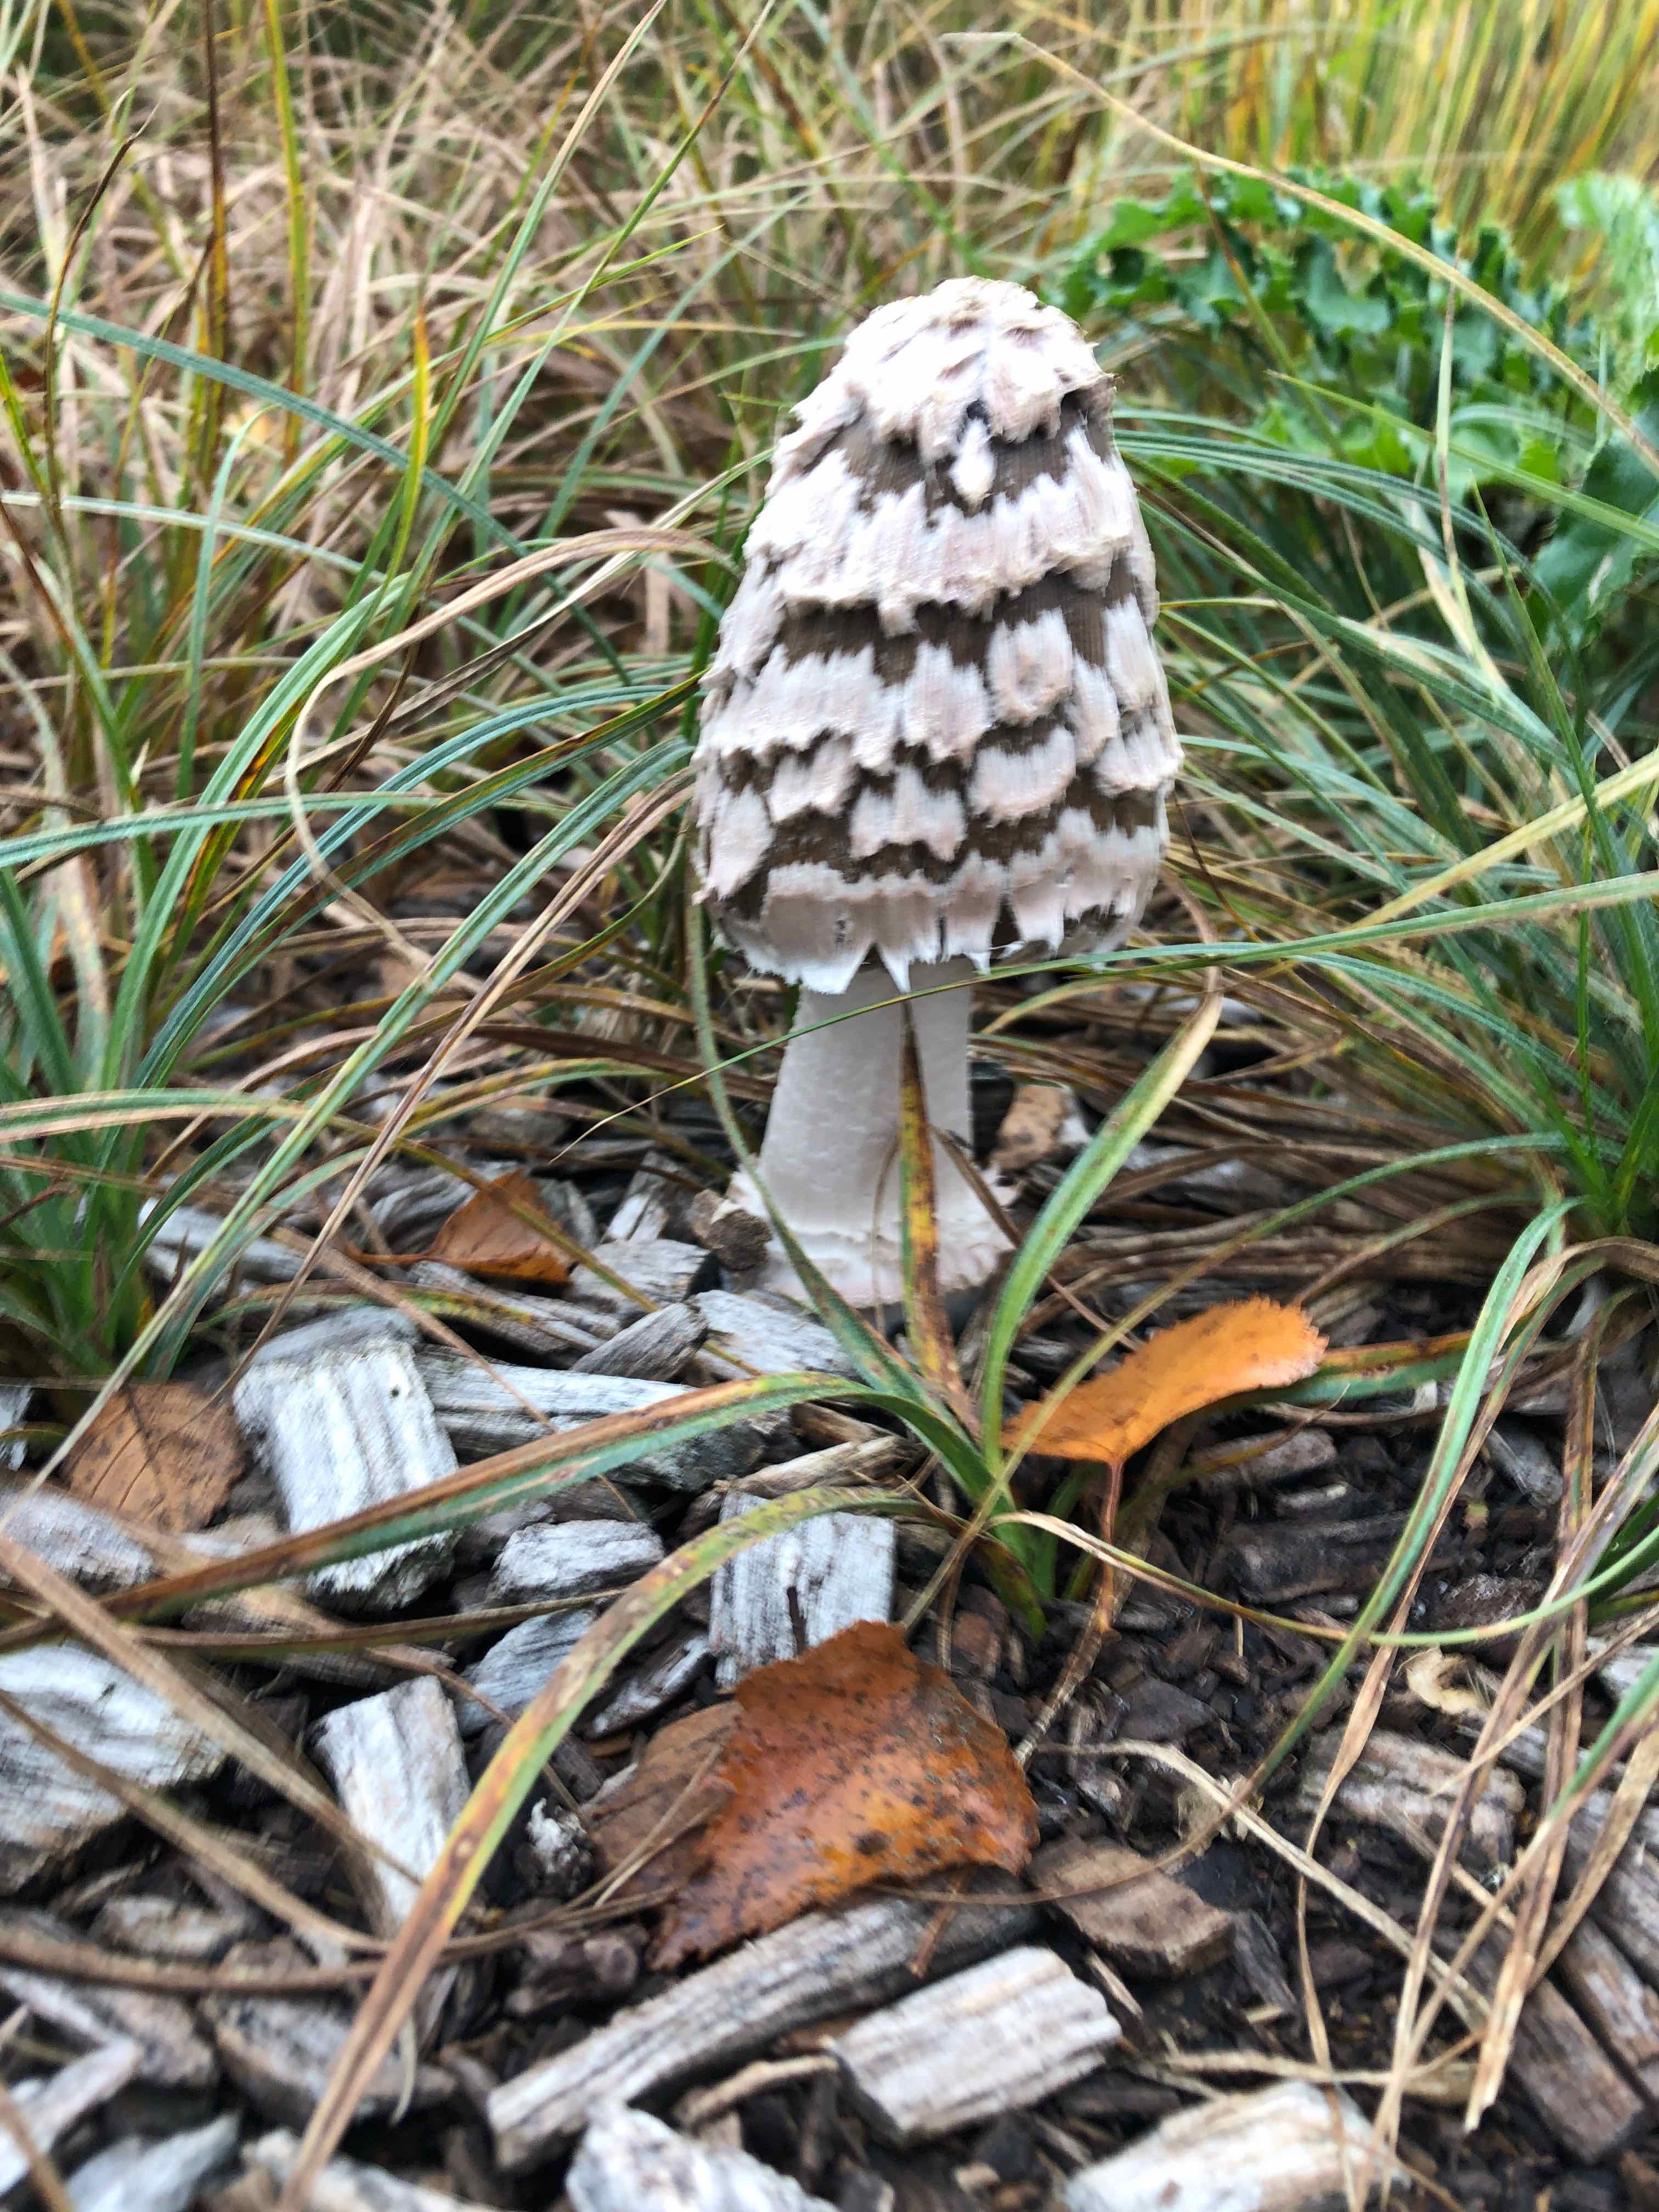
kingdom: Fungi
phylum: Basidiomycota
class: Agaricomycetes
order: Agaricales
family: Psathyrellaceae
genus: Coprinopsis
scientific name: Coprinopsis picacea
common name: skade-blækhat
